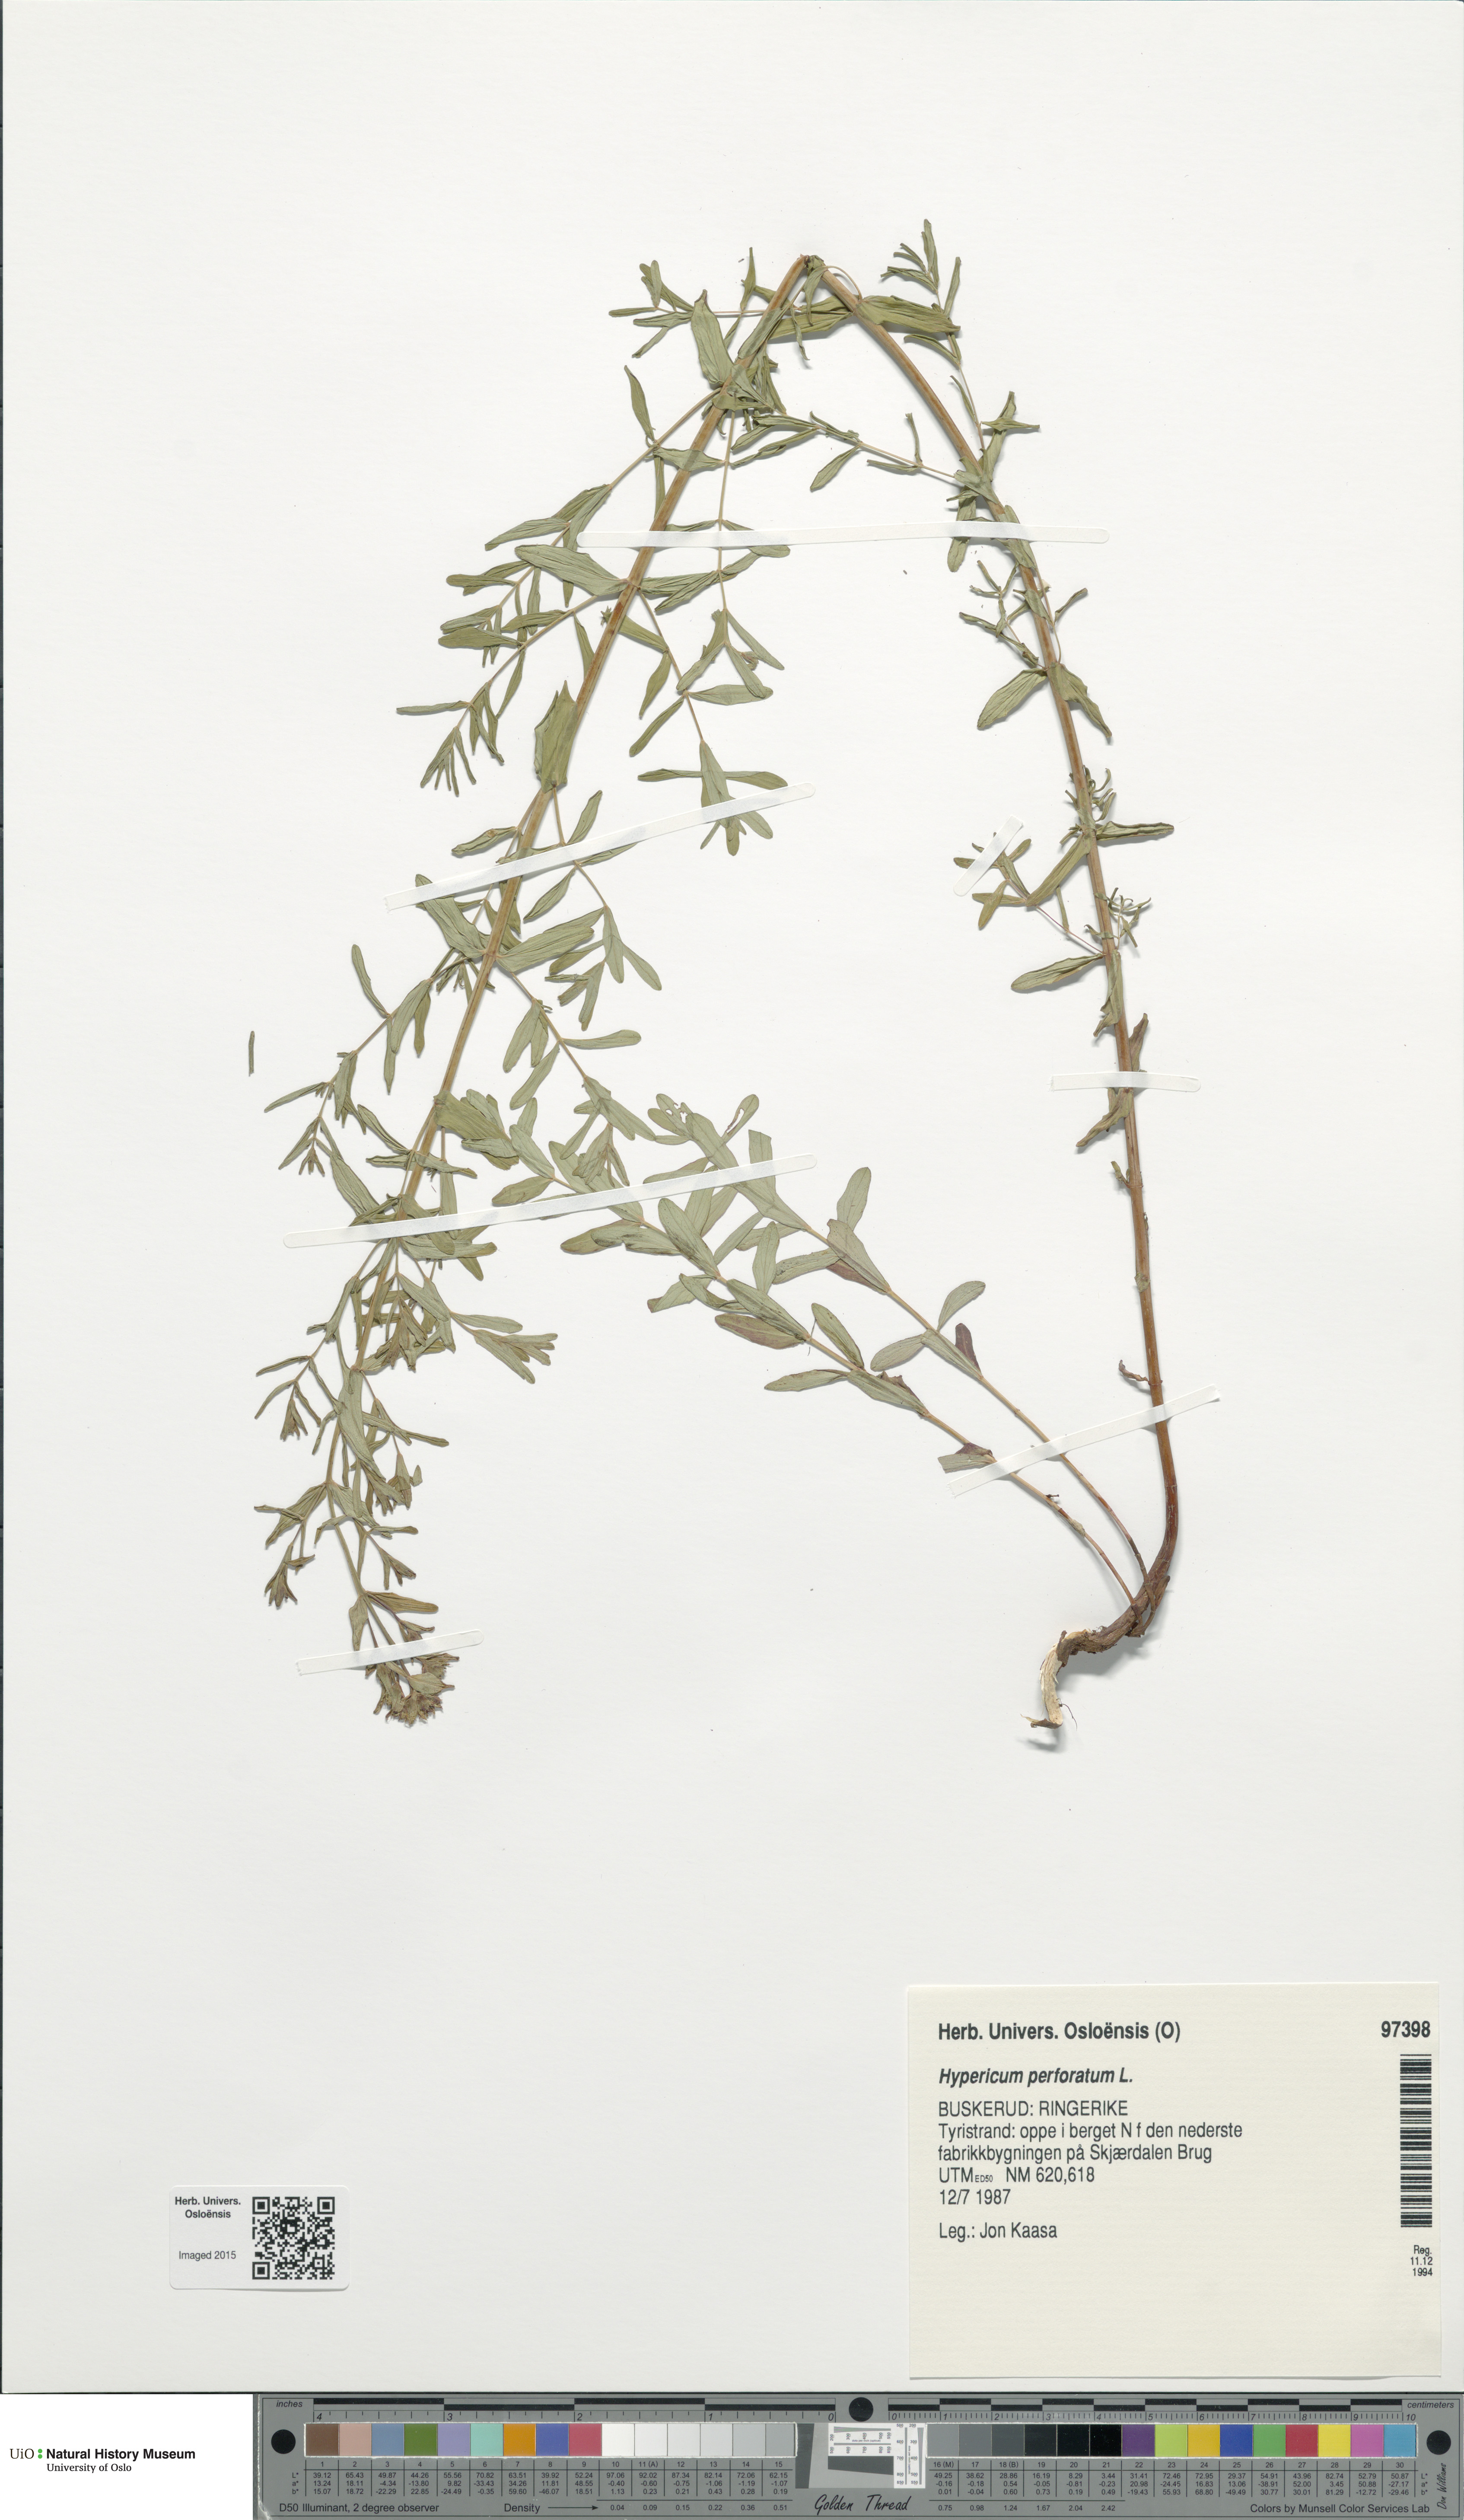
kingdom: Plantae
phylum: Tracheophyta
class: Magnoliopsida
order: Malpighiales
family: Hypericaceae
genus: Hypericum
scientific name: Hypericum perforatum
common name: Common st. johnswort
